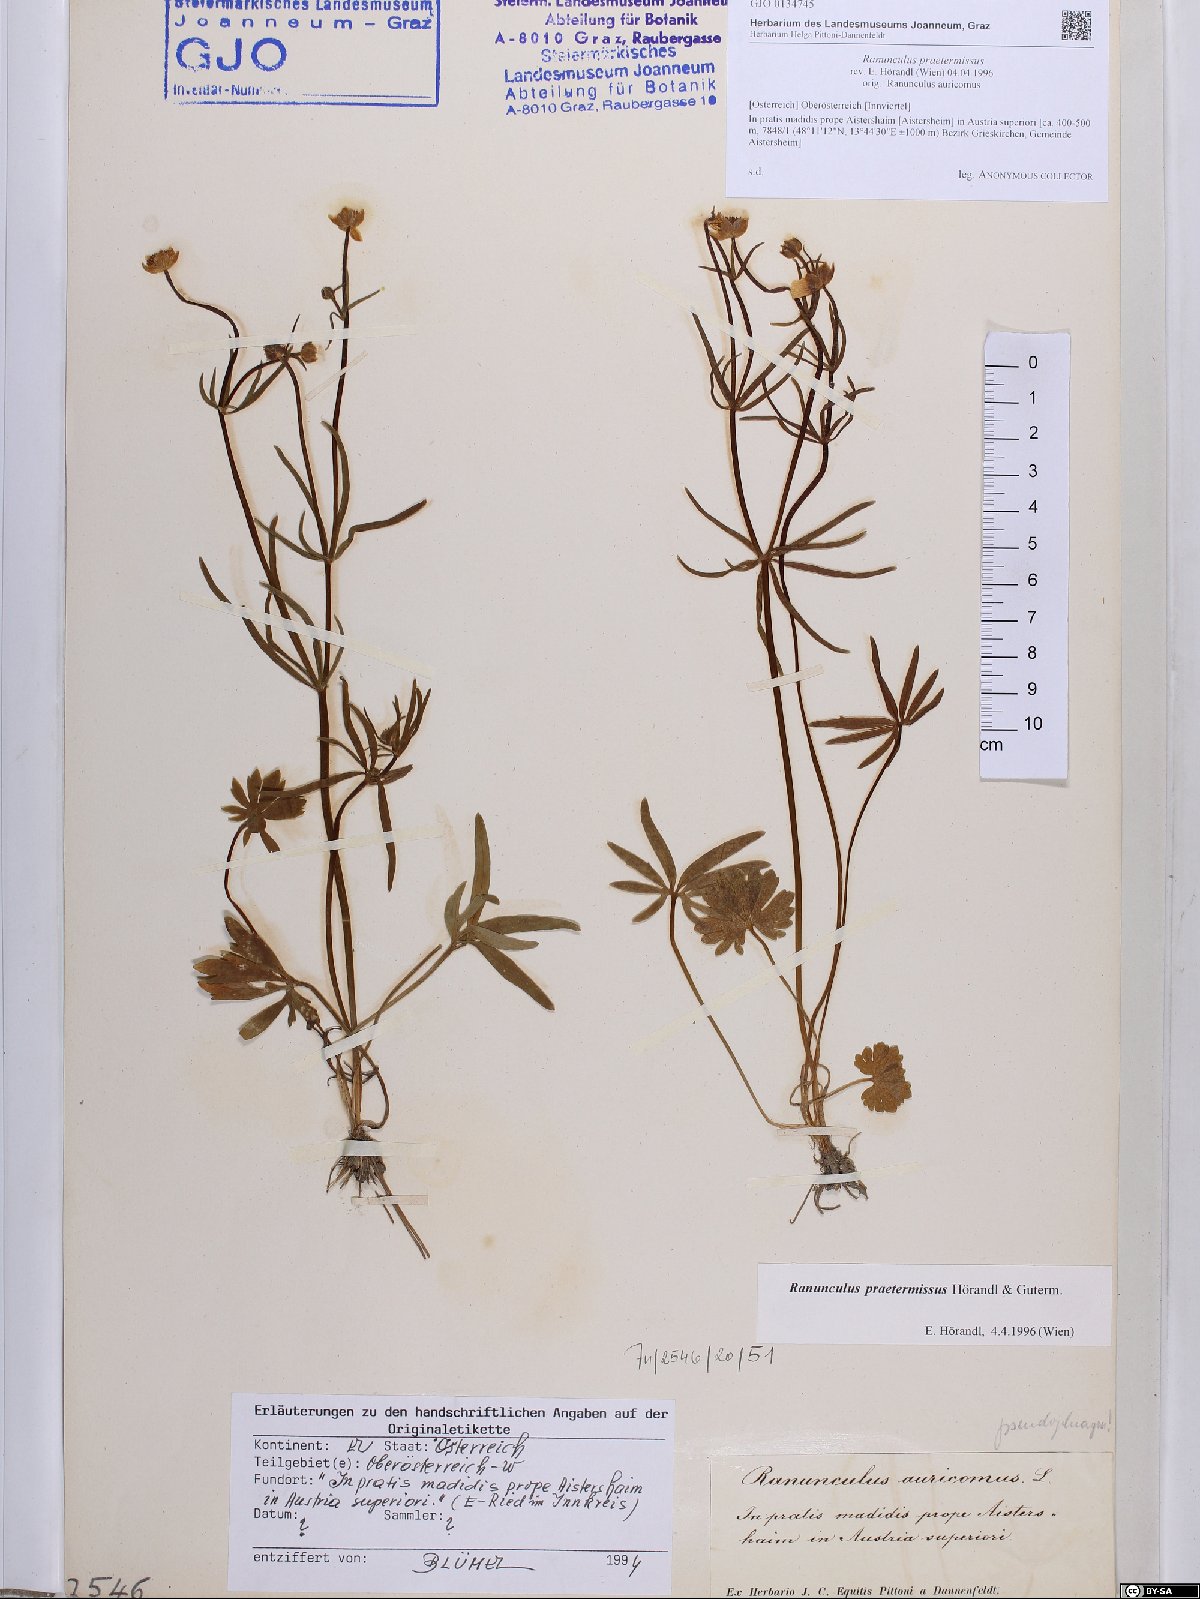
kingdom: Plantae
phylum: Tracheophyta
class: Magnoliopsida
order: Ranunculales
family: Ranunculaceae
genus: Ranunculus
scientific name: Ranunculus praetermissus
